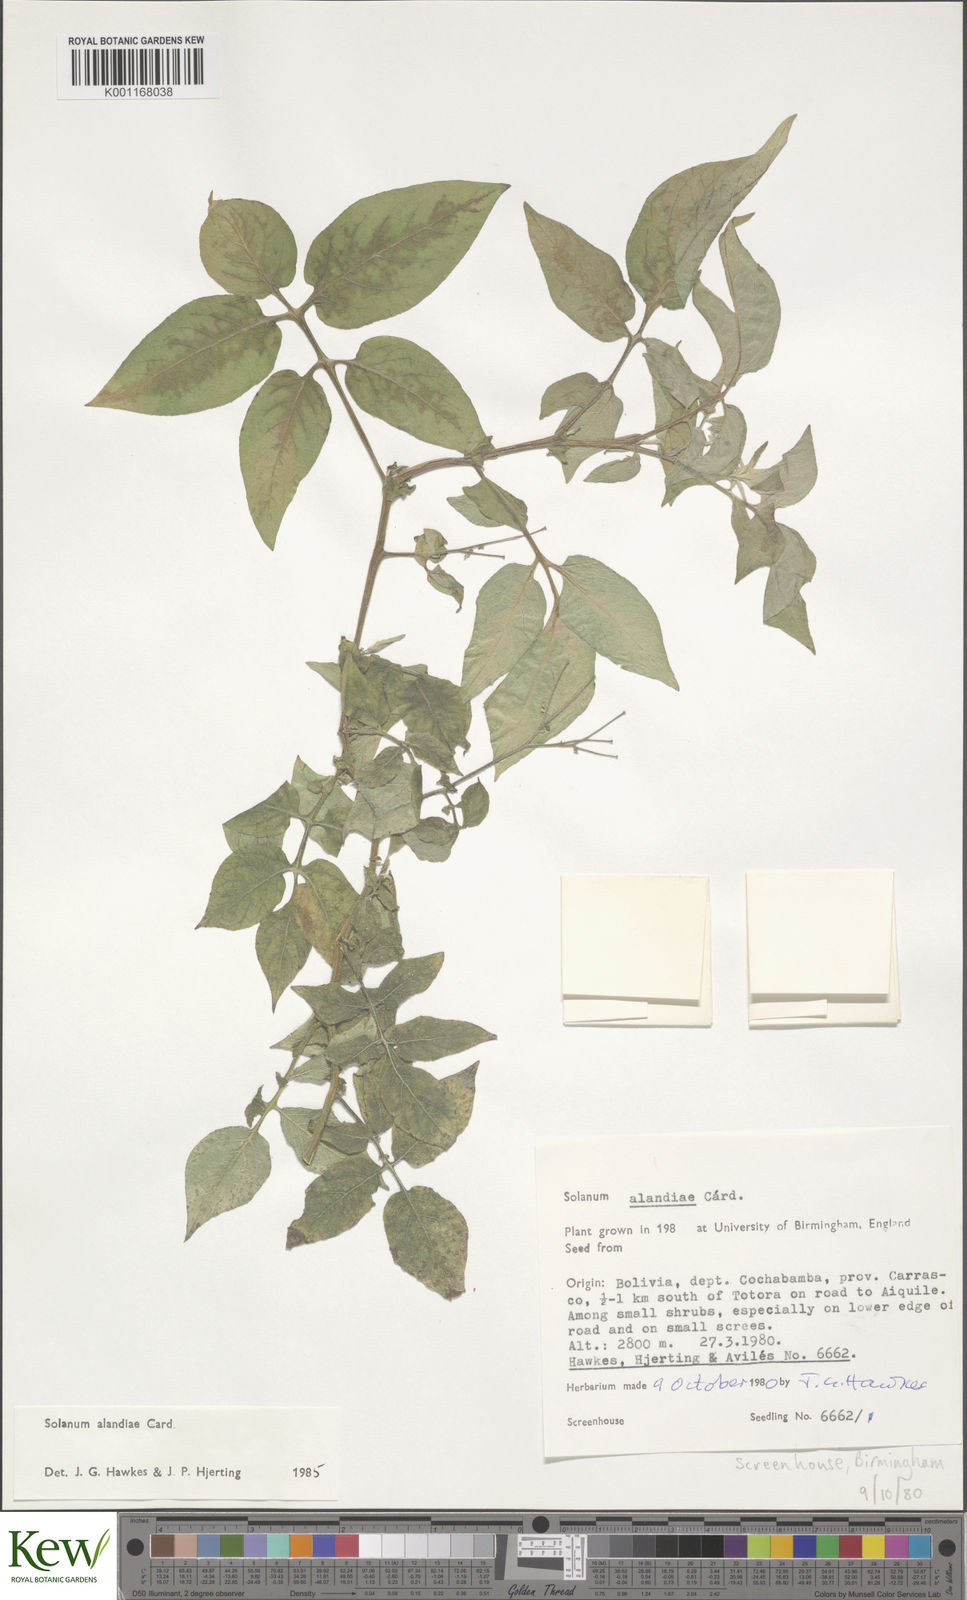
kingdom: Plantae
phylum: Tracheophyta
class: Magnoliopsida
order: Solanales
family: Solanaceae
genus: Solanum
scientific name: Solanum
